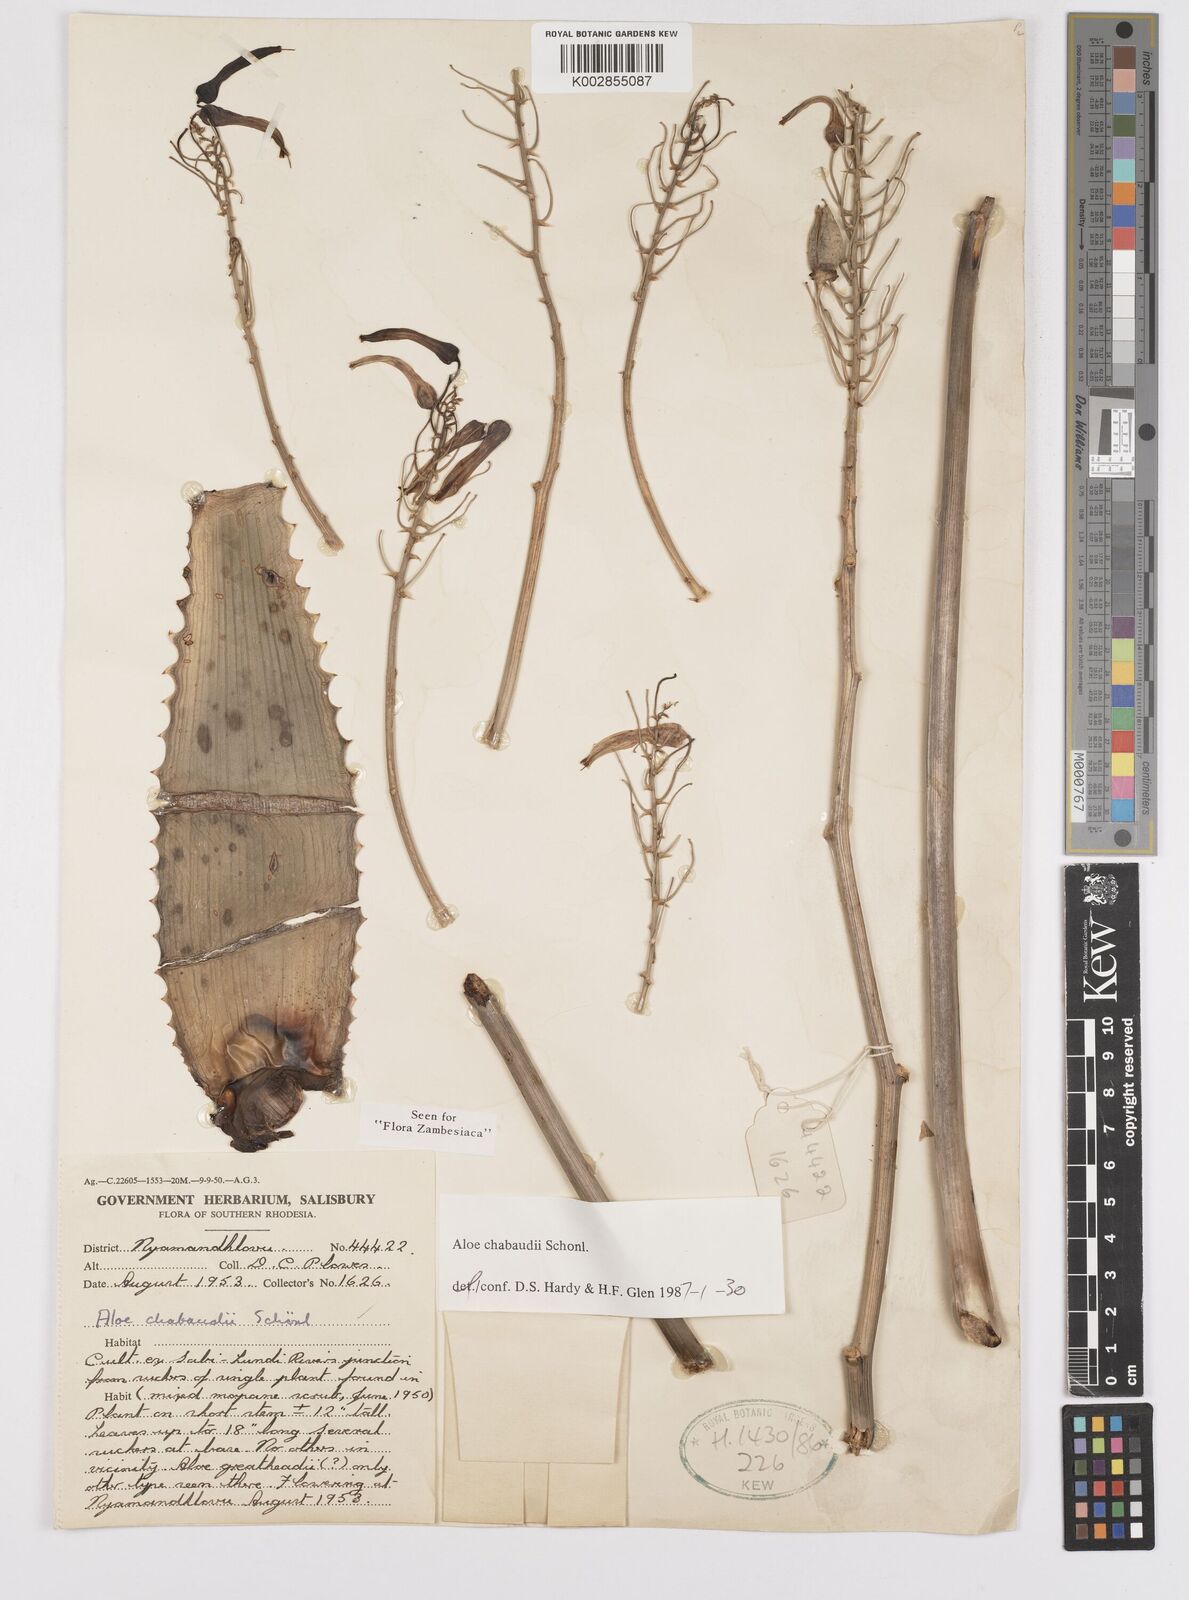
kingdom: Plantae
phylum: Tracheophyta
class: Liliopsida
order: Asparagales
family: Asphodelaceae
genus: Aloe
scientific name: Aloe
